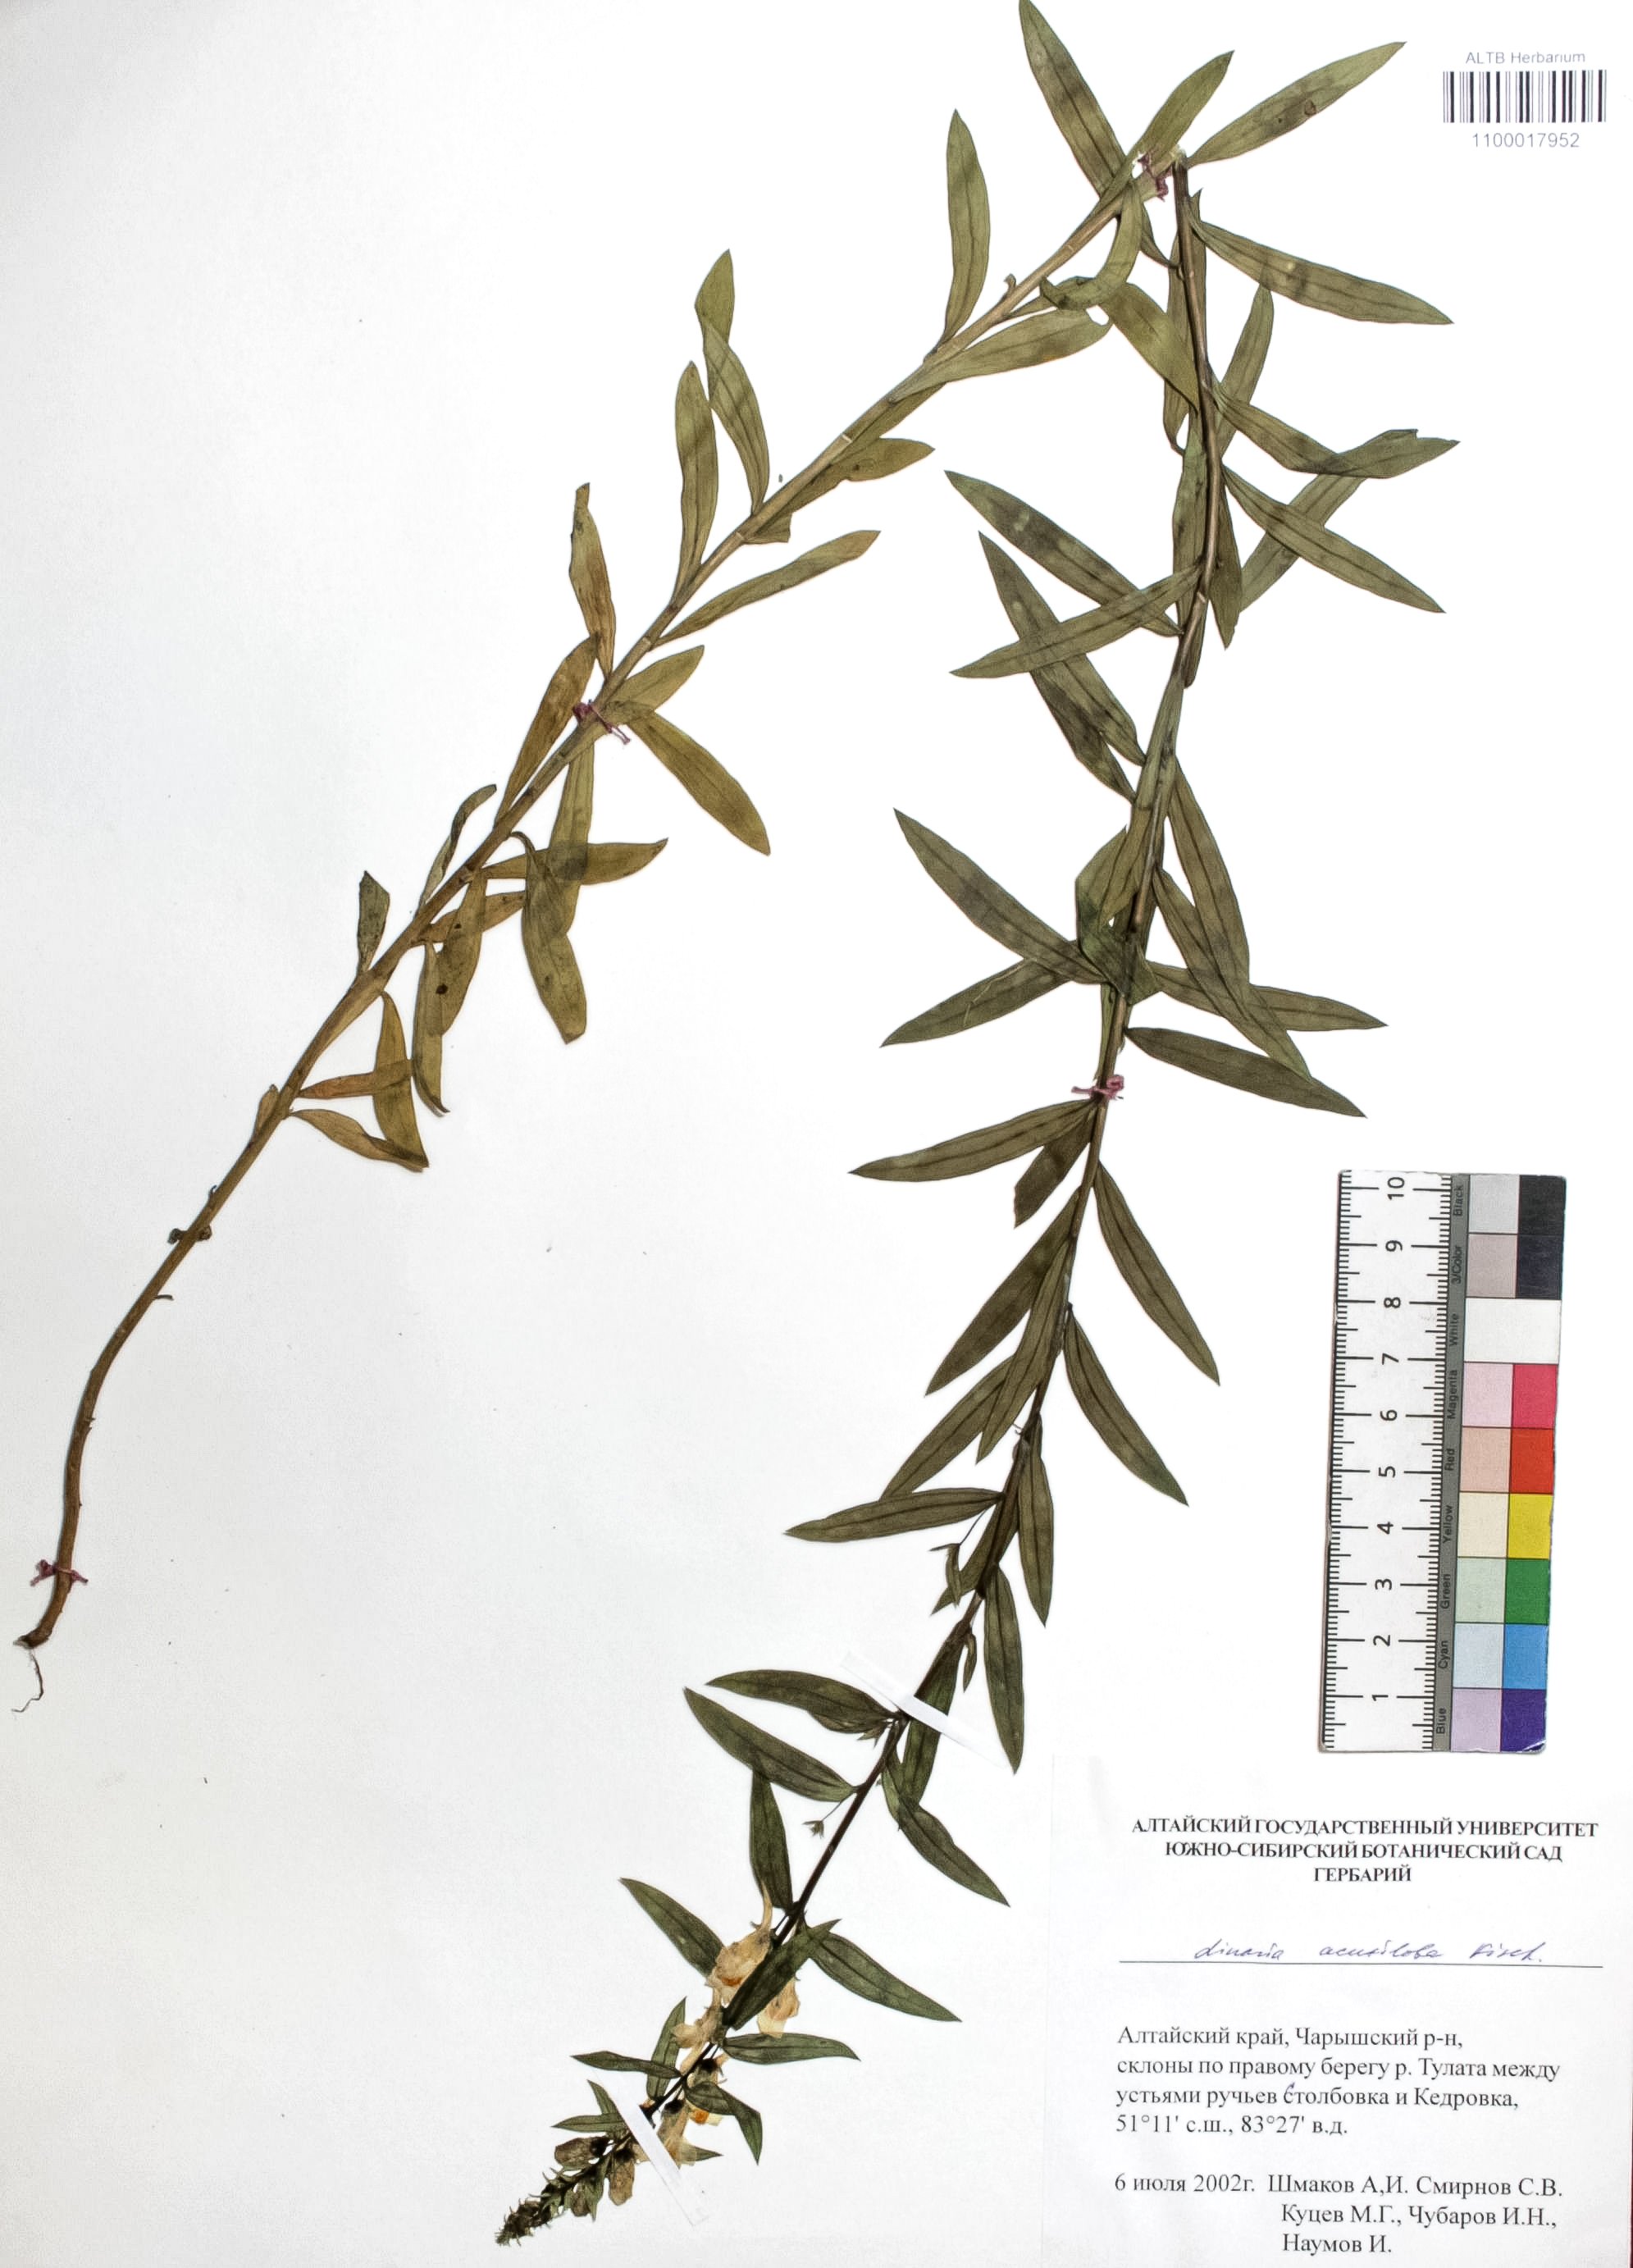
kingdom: Plantae
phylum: Tracheophyta
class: Magnoliopsida
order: Lamiales
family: Plantaginaceae
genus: Linaria
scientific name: Linaria acutiloba
